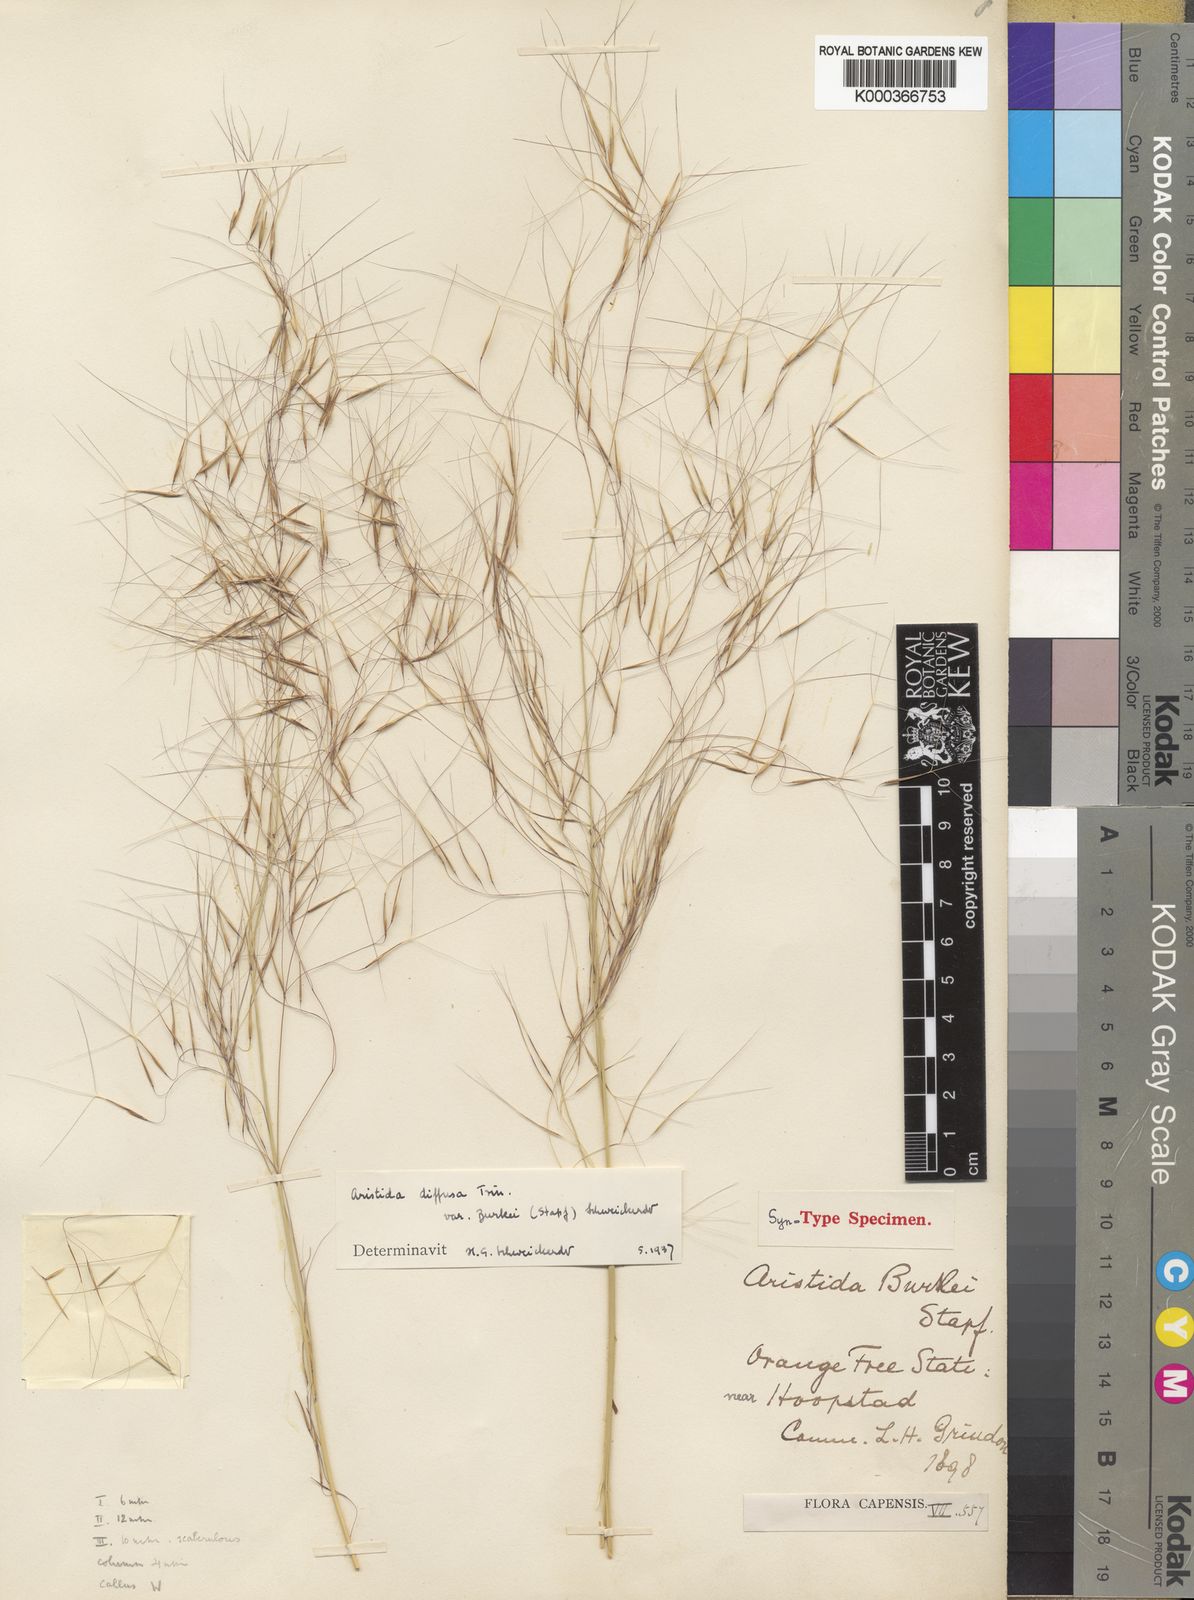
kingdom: Plantae
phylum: Tracheophyta
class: Liliopsida
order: Poales
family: Poaceae
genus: Aristida
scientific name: Aristida diffusa
